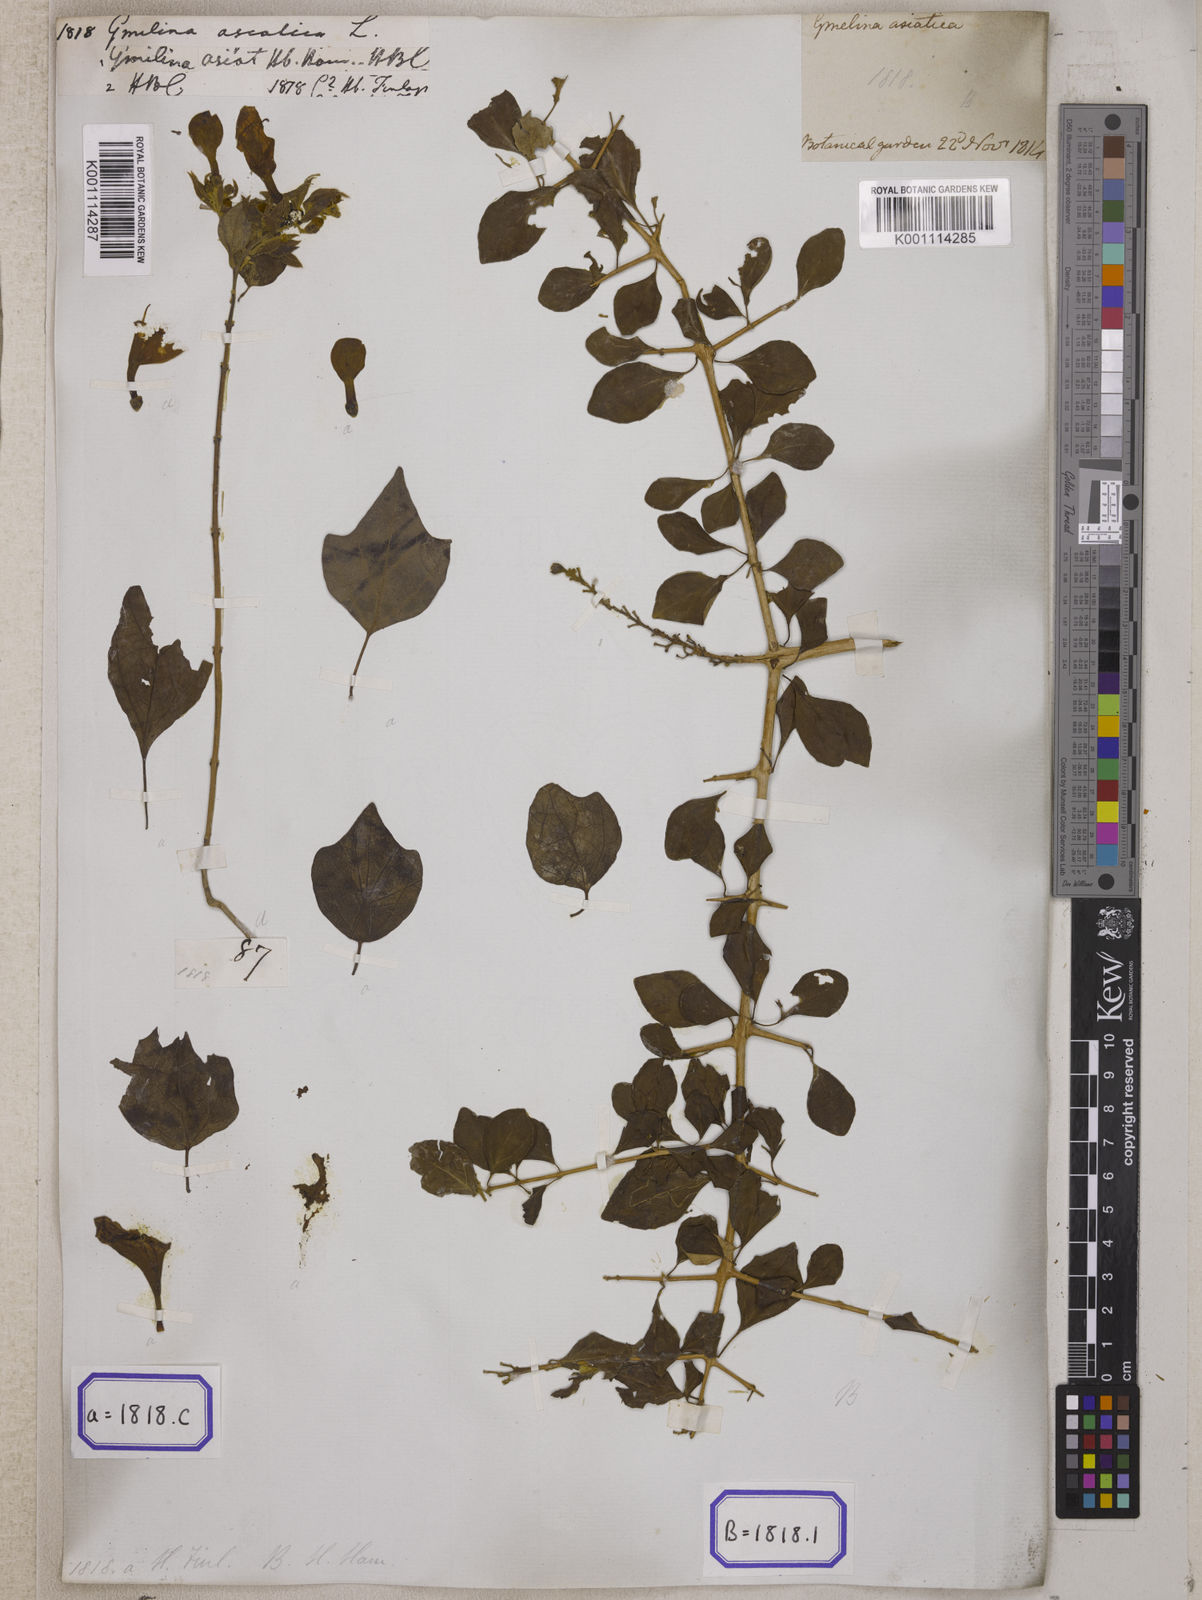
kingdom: Plantae
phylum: Tracheophyta
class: Magnoliopsida
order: Lamiales
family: Lamiaceae
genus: Gmelina
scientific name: Gmelina asiatica
